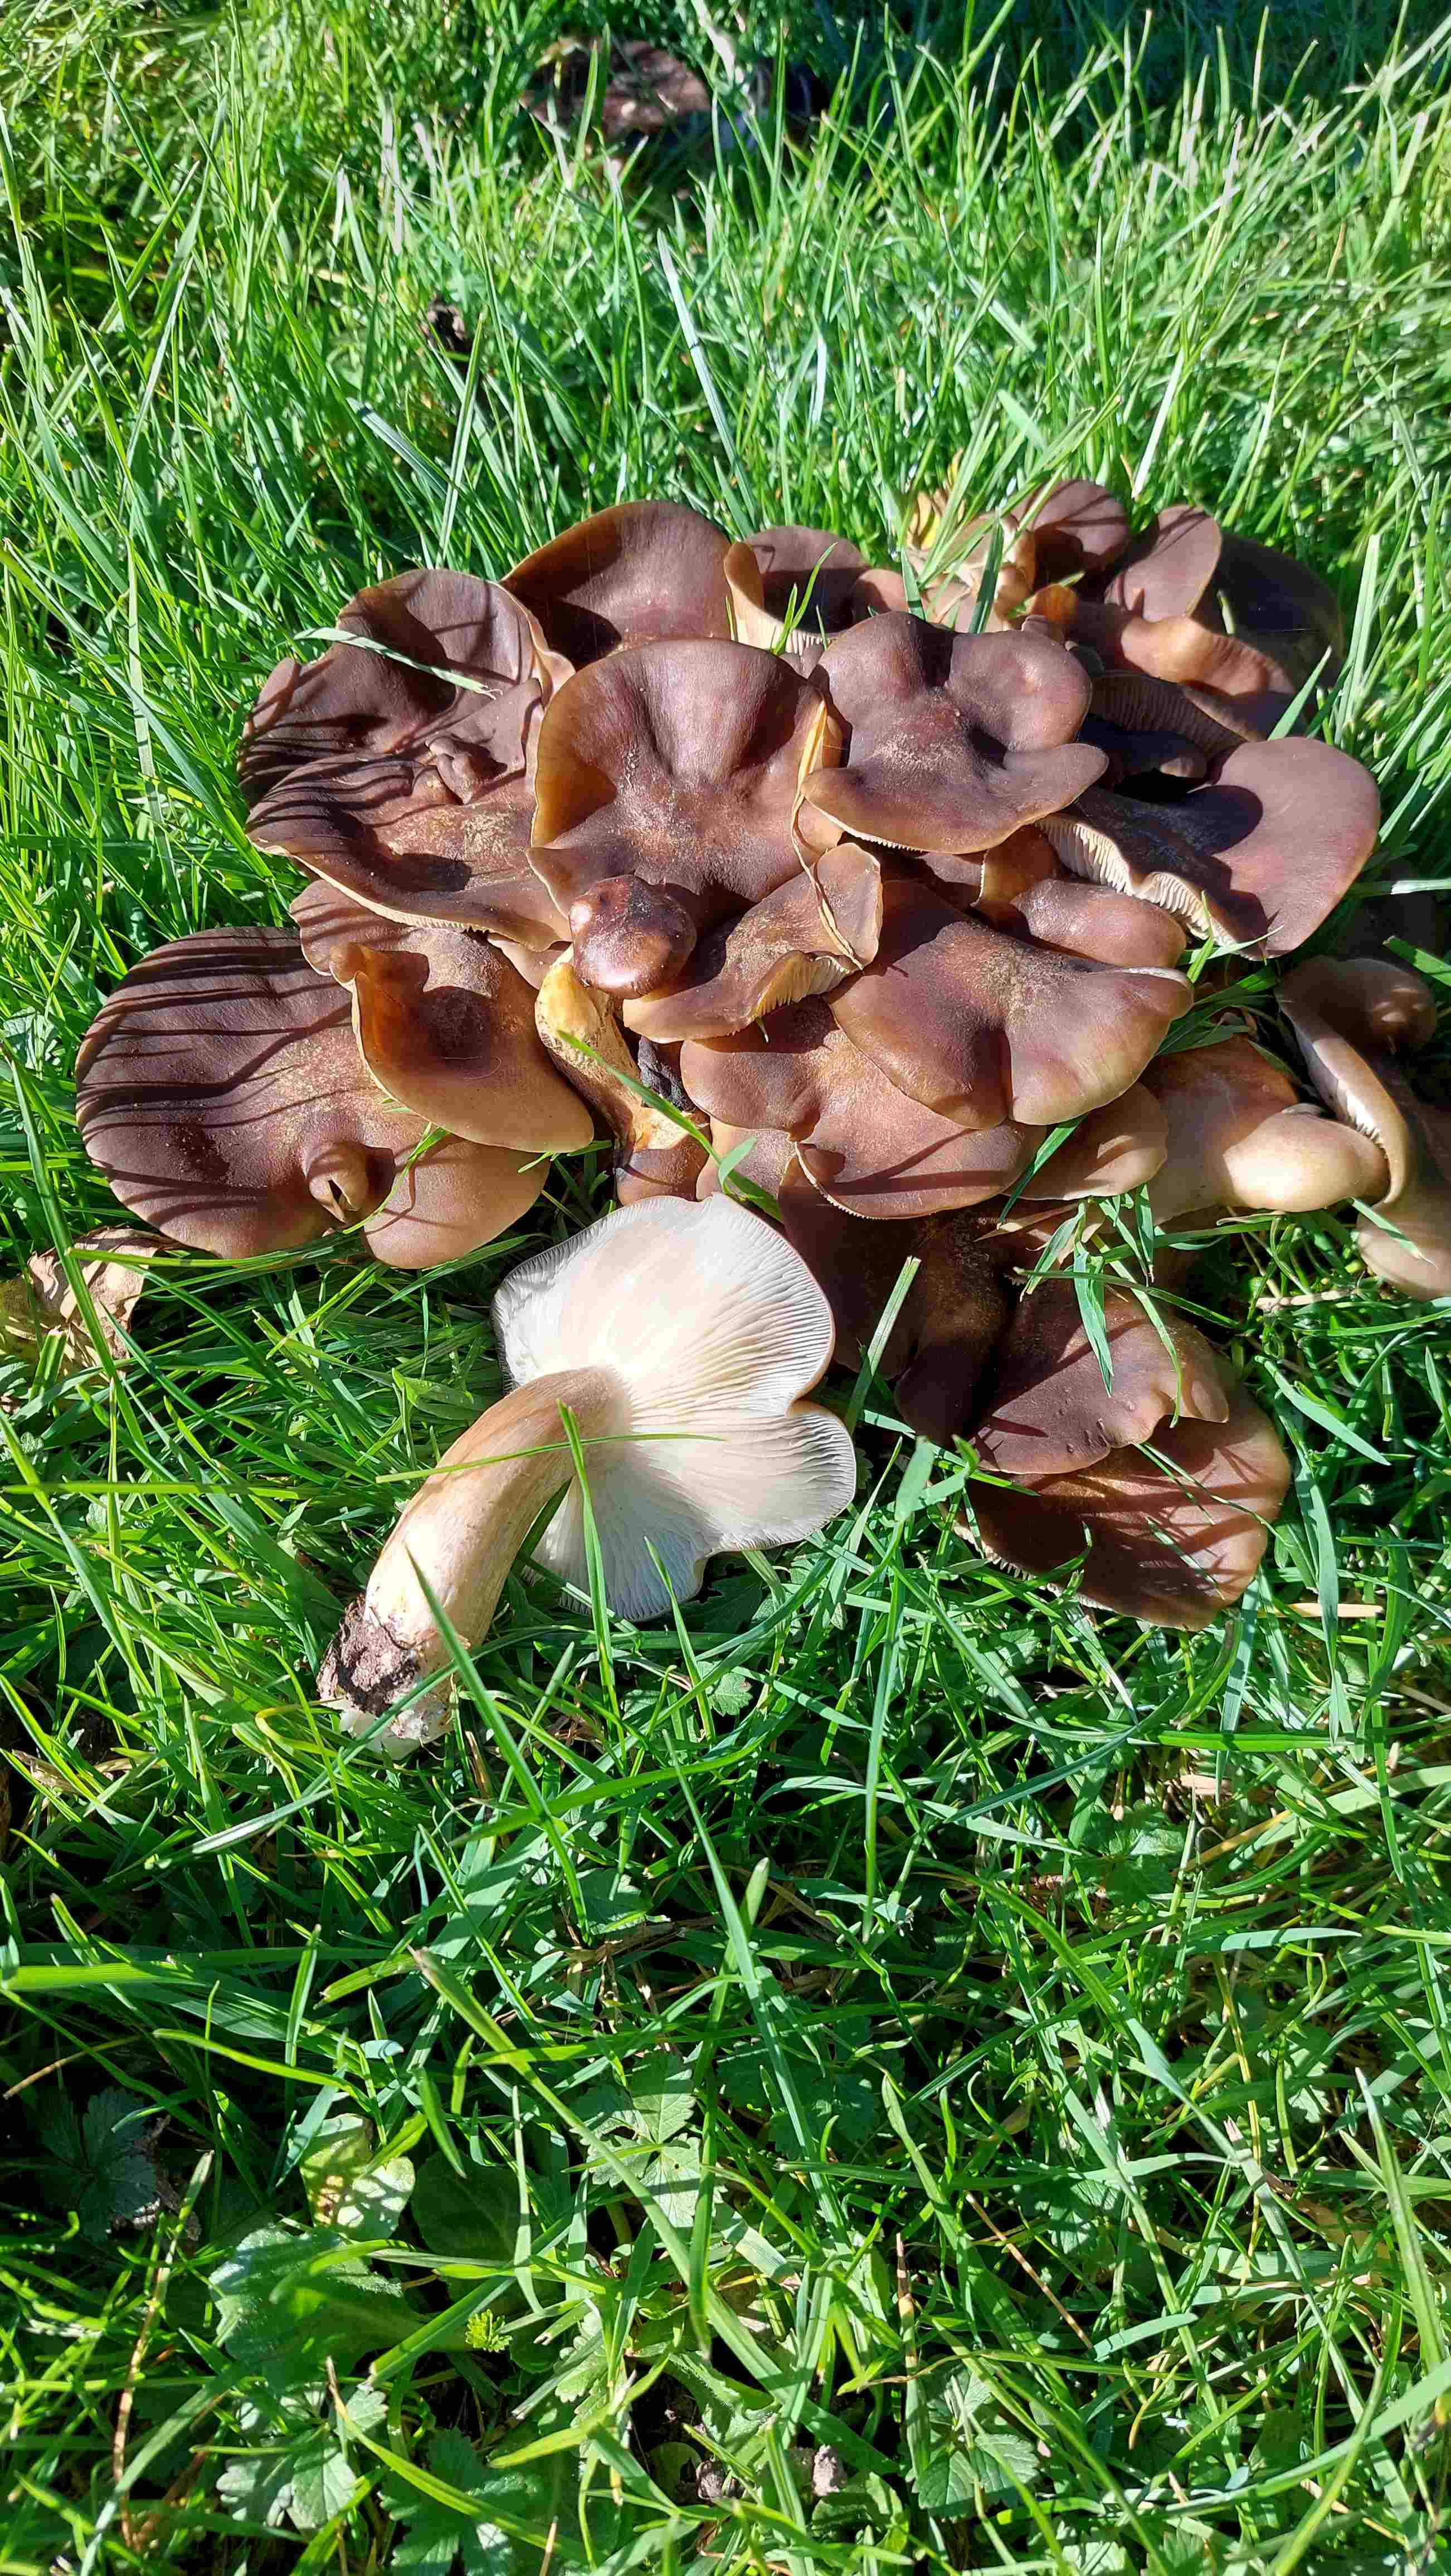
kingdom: Fungi
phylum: Basidiomycota
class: Agaricomycetes
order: Agaricales
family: Lyophyllaceae
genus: Lyophyllum
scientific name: Lyophyllum decastes
